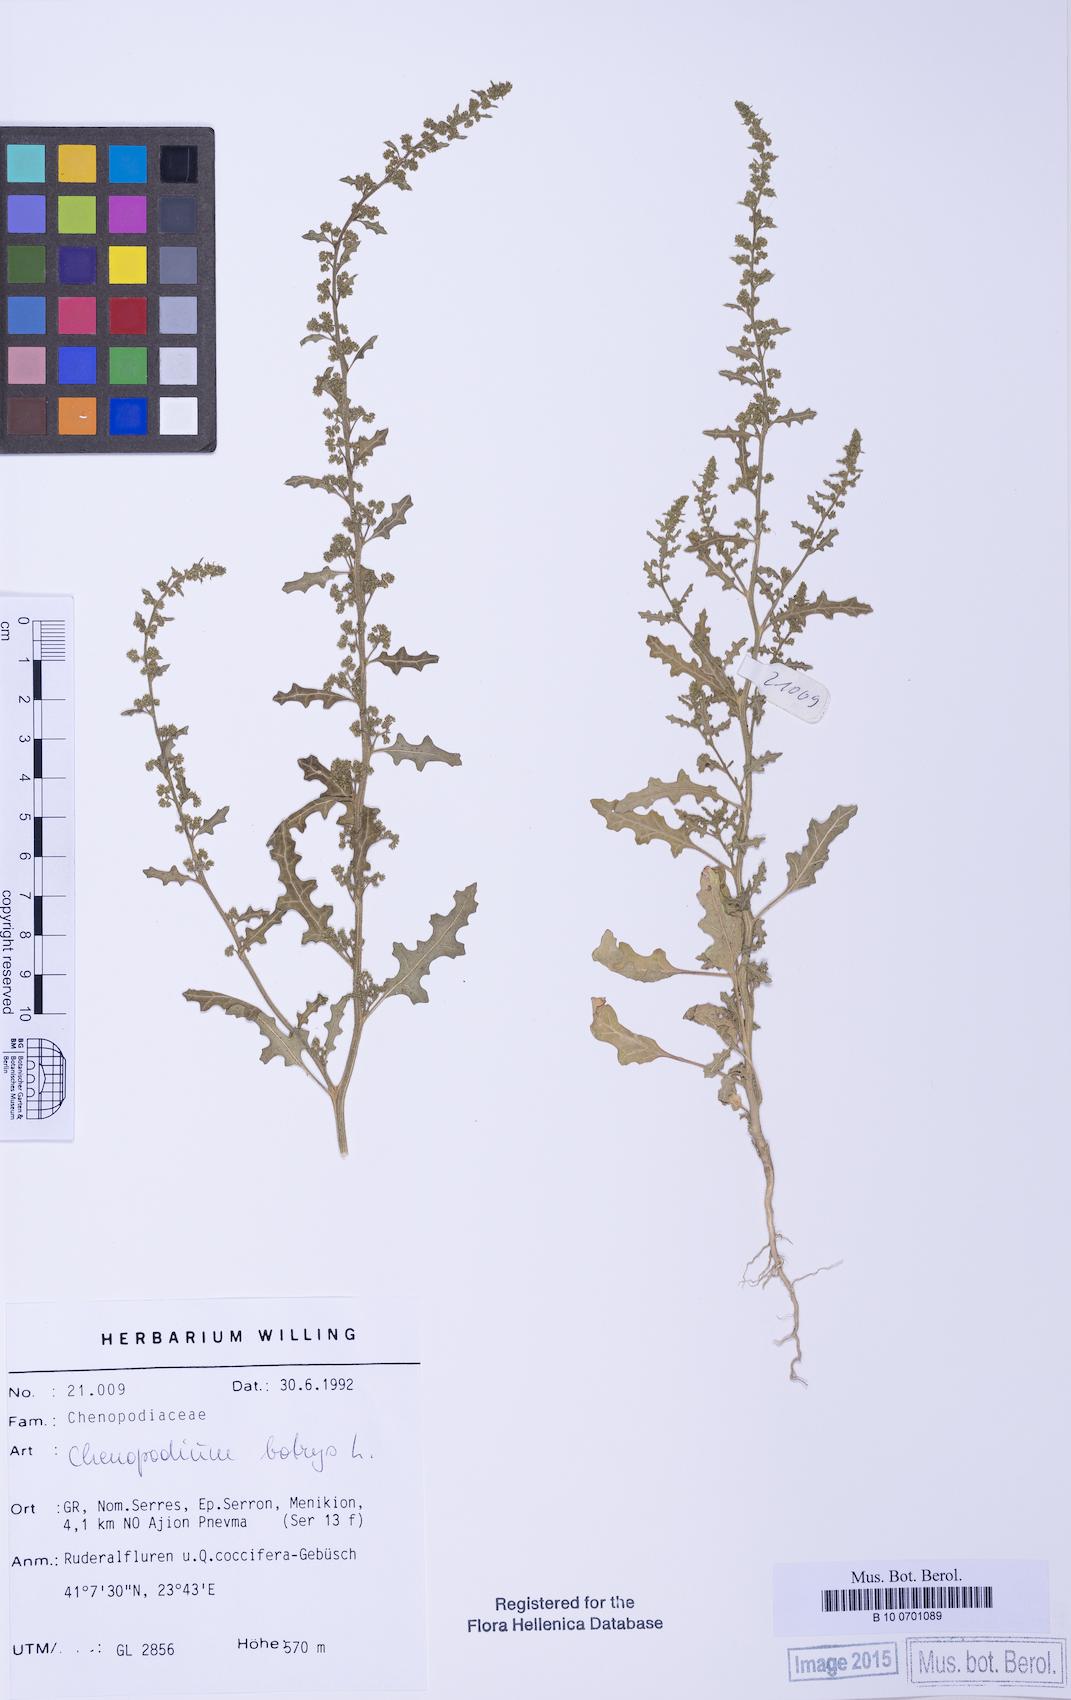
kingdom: Plantae
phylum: Tracheophyta
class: Magnoliopsida
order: Caryophyllales
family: Amaranthaceae
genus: Dysphania
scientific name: Dysphania botrys
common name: Feather-geranium
